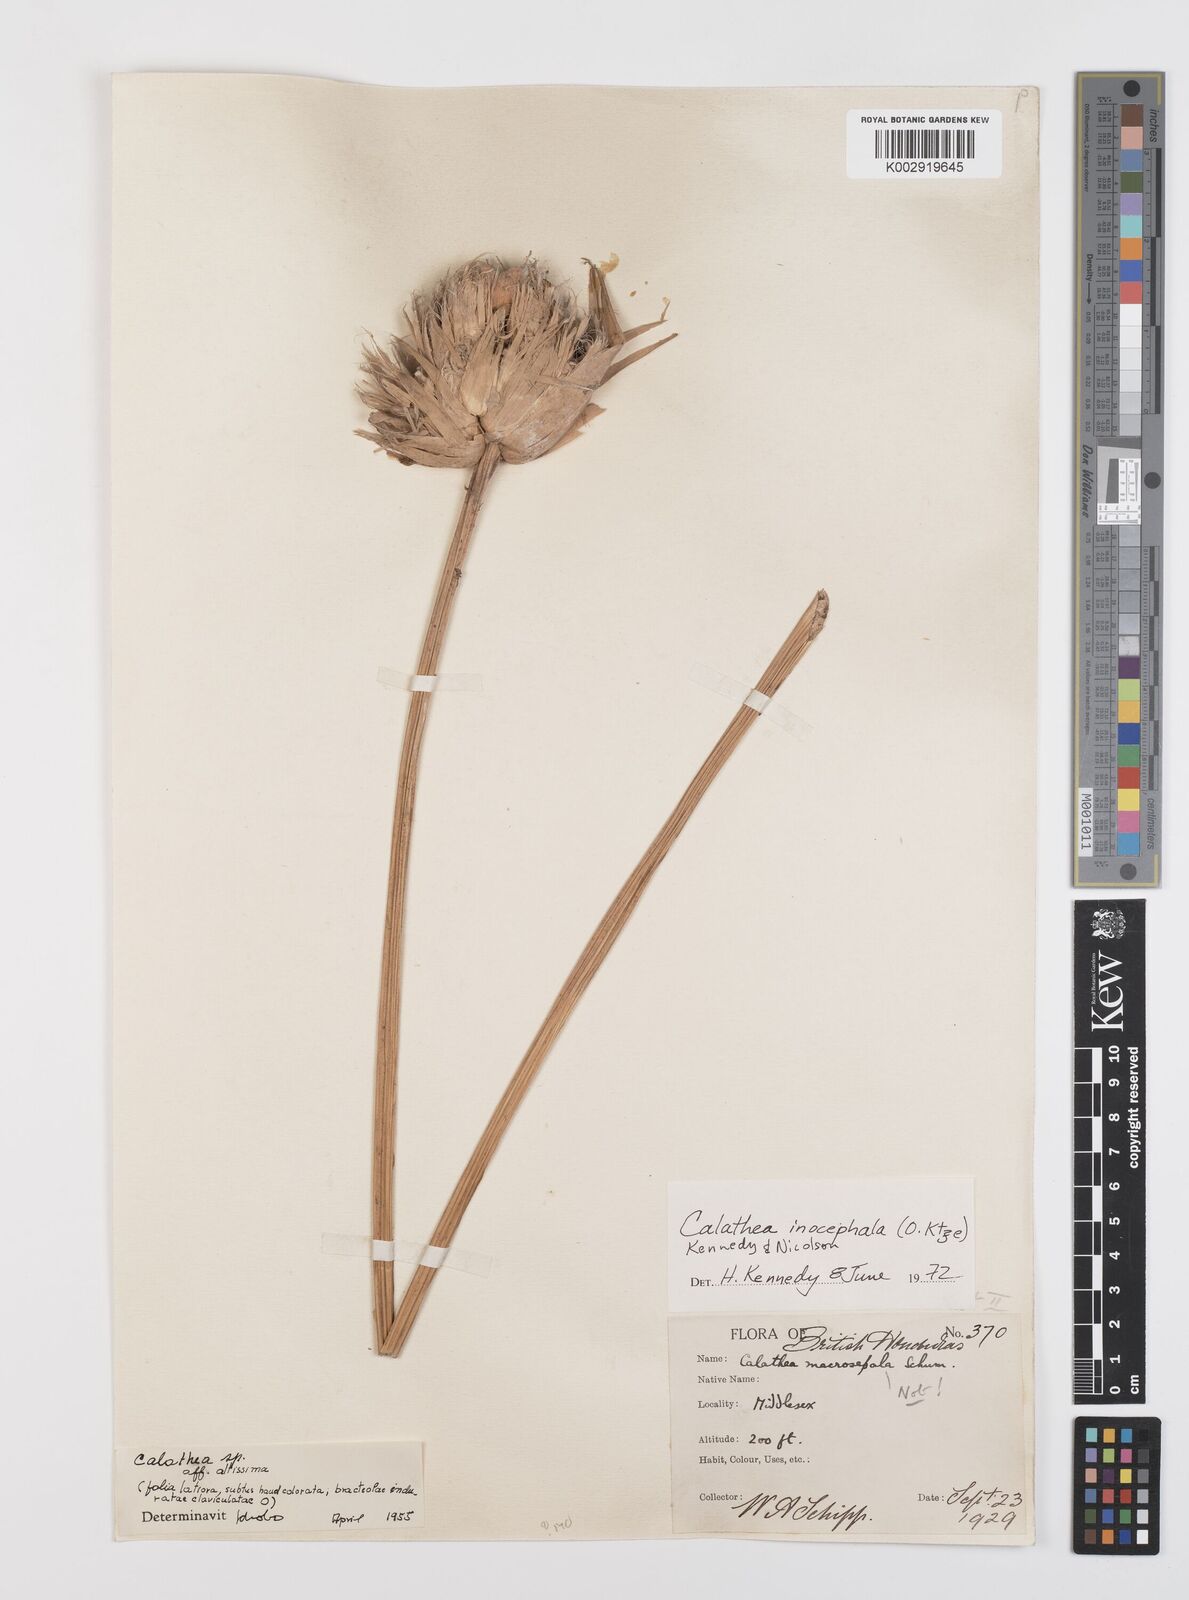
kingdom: Plantae
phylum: Tracheophyta
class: Liliopsida
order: Zingiberales
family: Marantaceae
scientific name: Marantaceae
